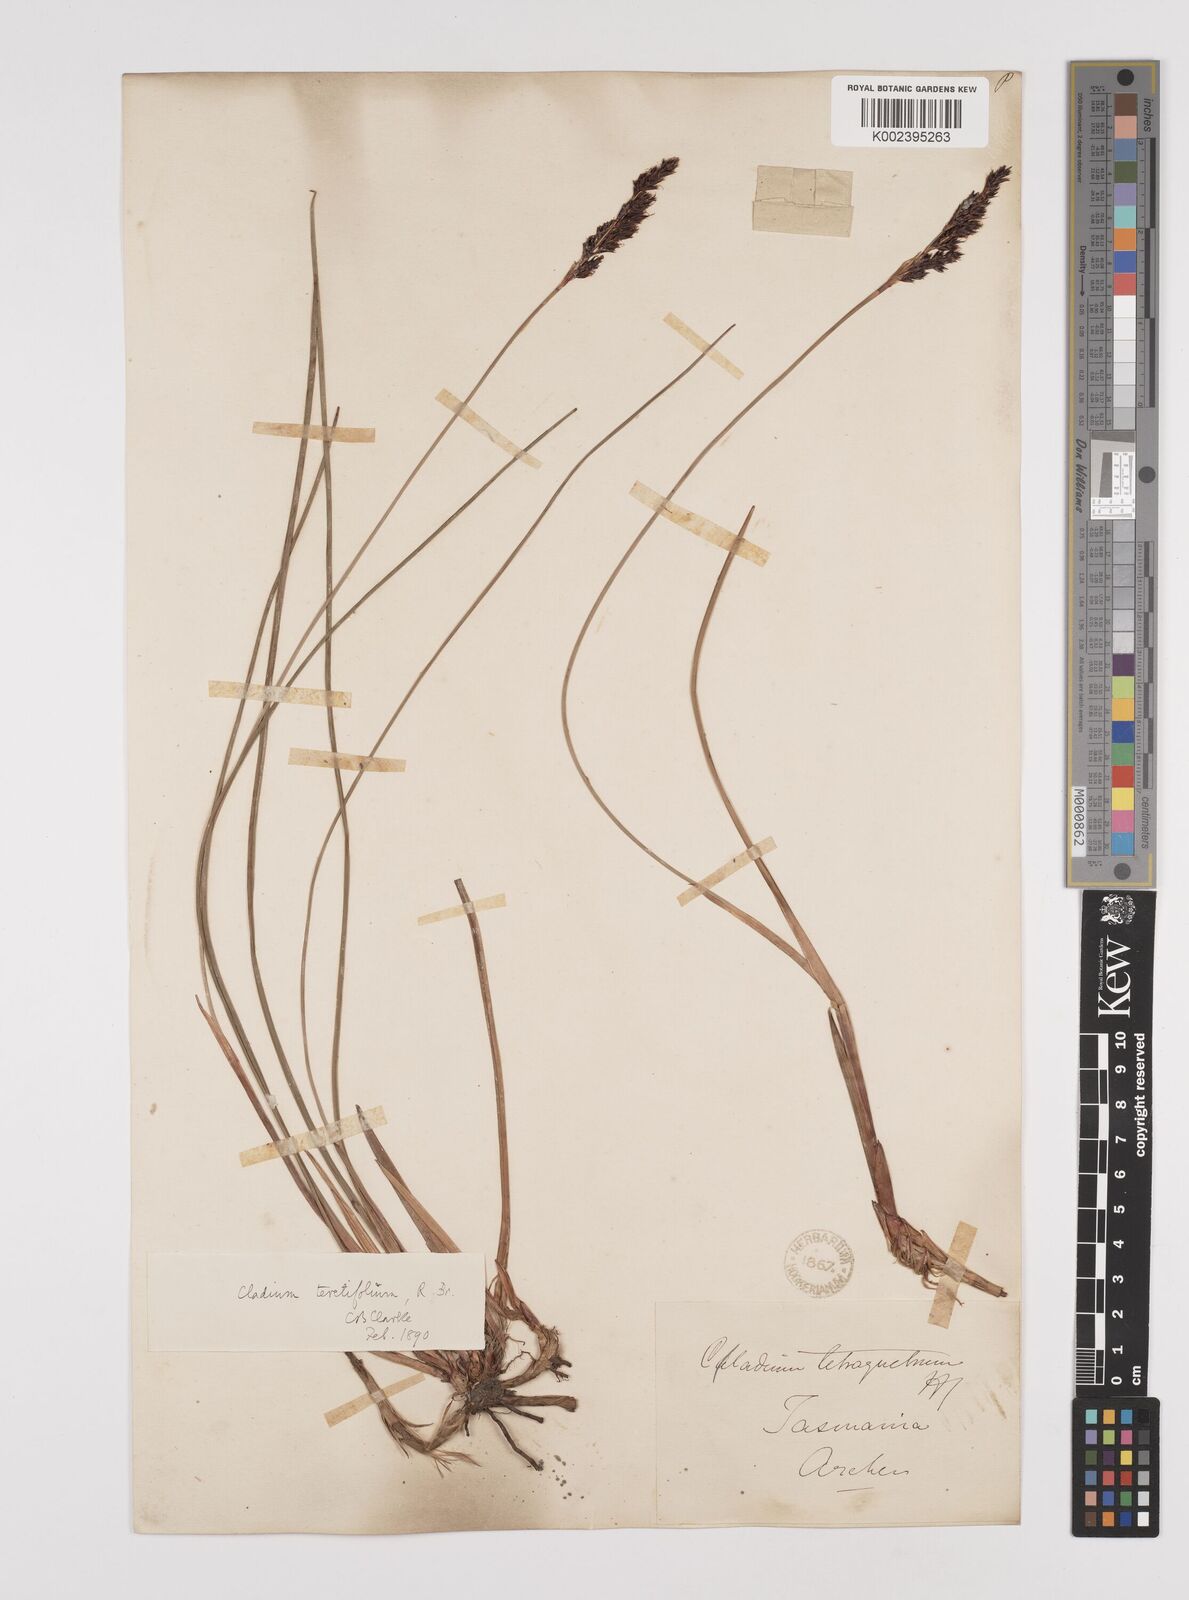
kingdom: Plantae
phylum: Tracheophyta
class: Liliopsida
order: Poales
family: Cyperaceae
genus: Machaerina
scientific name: Machaerina tetragona
